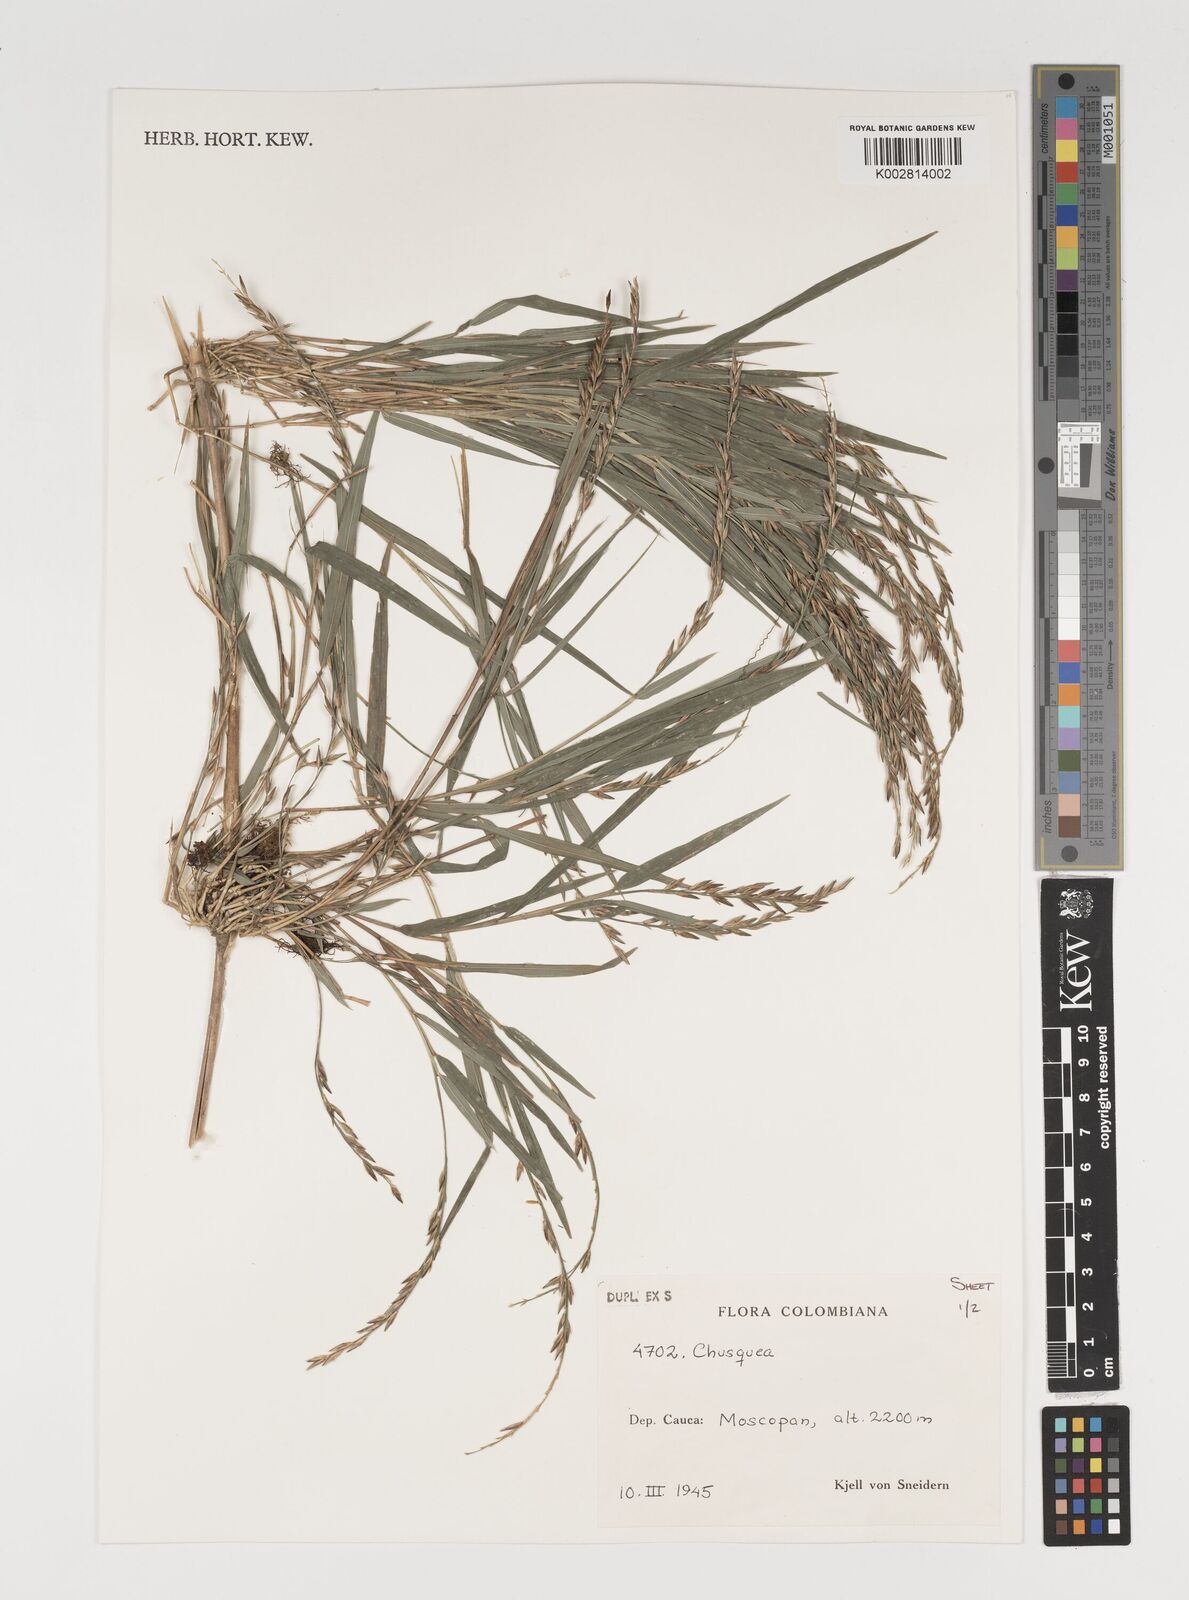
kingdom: Plantae
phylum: Tracheophyta
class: Liliopsida
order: Poales
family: Poaceae
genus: Chusquea
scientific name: Chusquea
